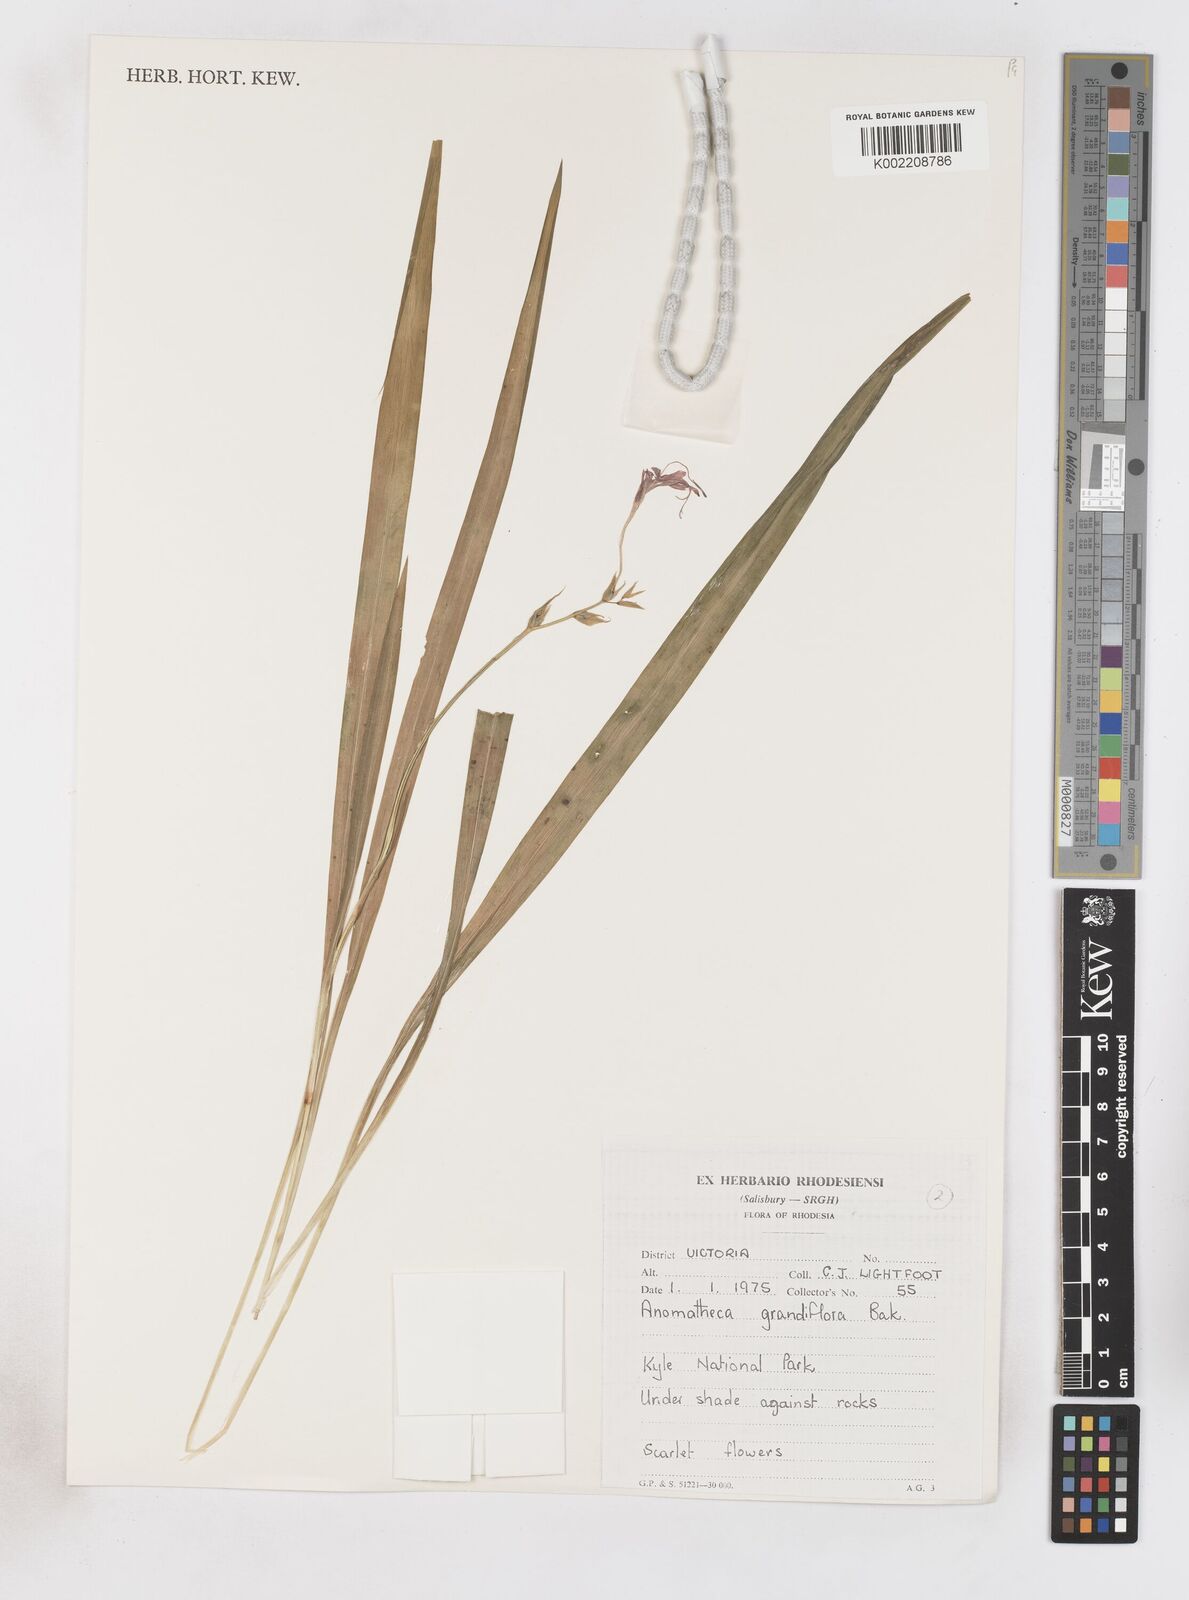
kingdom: Plantae
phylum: Tracheophyta
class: Liliopsida
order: Asparagales
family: Iridaceae
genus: Freesia
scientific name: Freesia grandiflora
